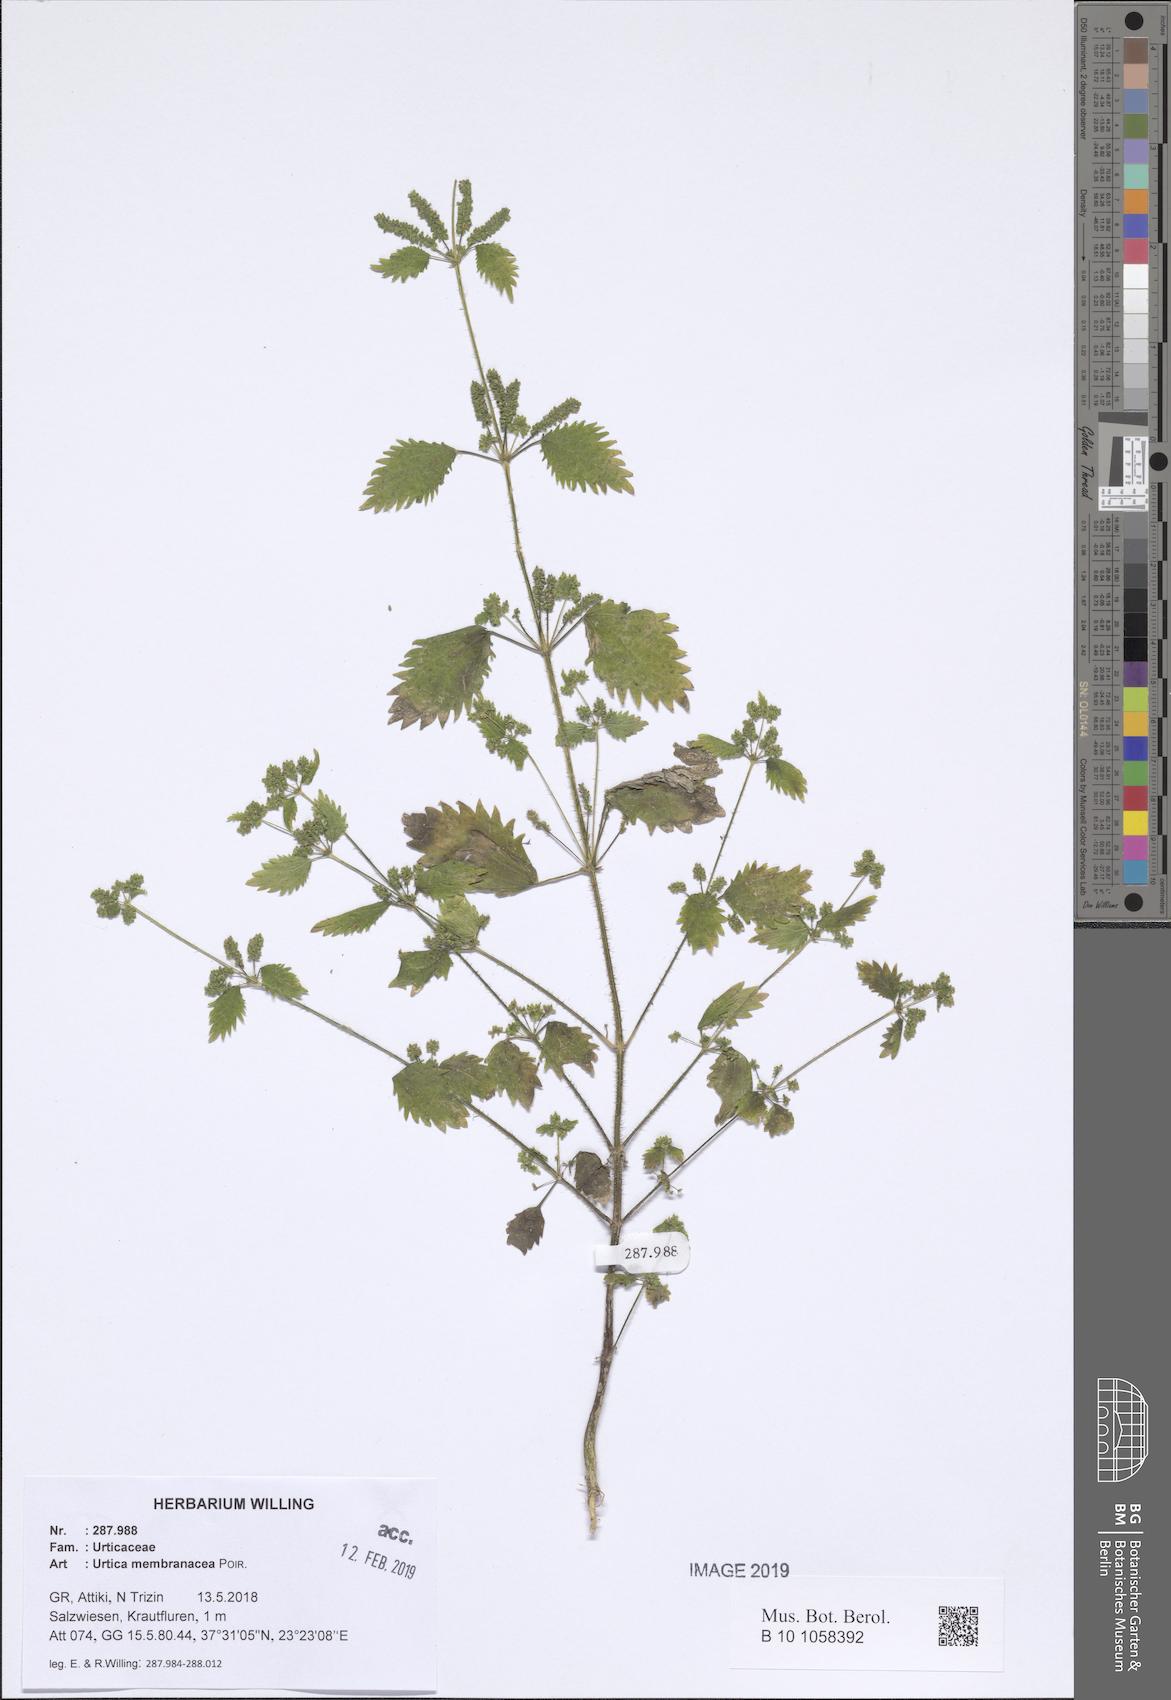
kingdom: Plantae
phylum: Tracheophyta
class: Magnoliopsida
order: Rosales
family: Urticaceae
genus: Urtica
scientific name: Urtica membranacea
